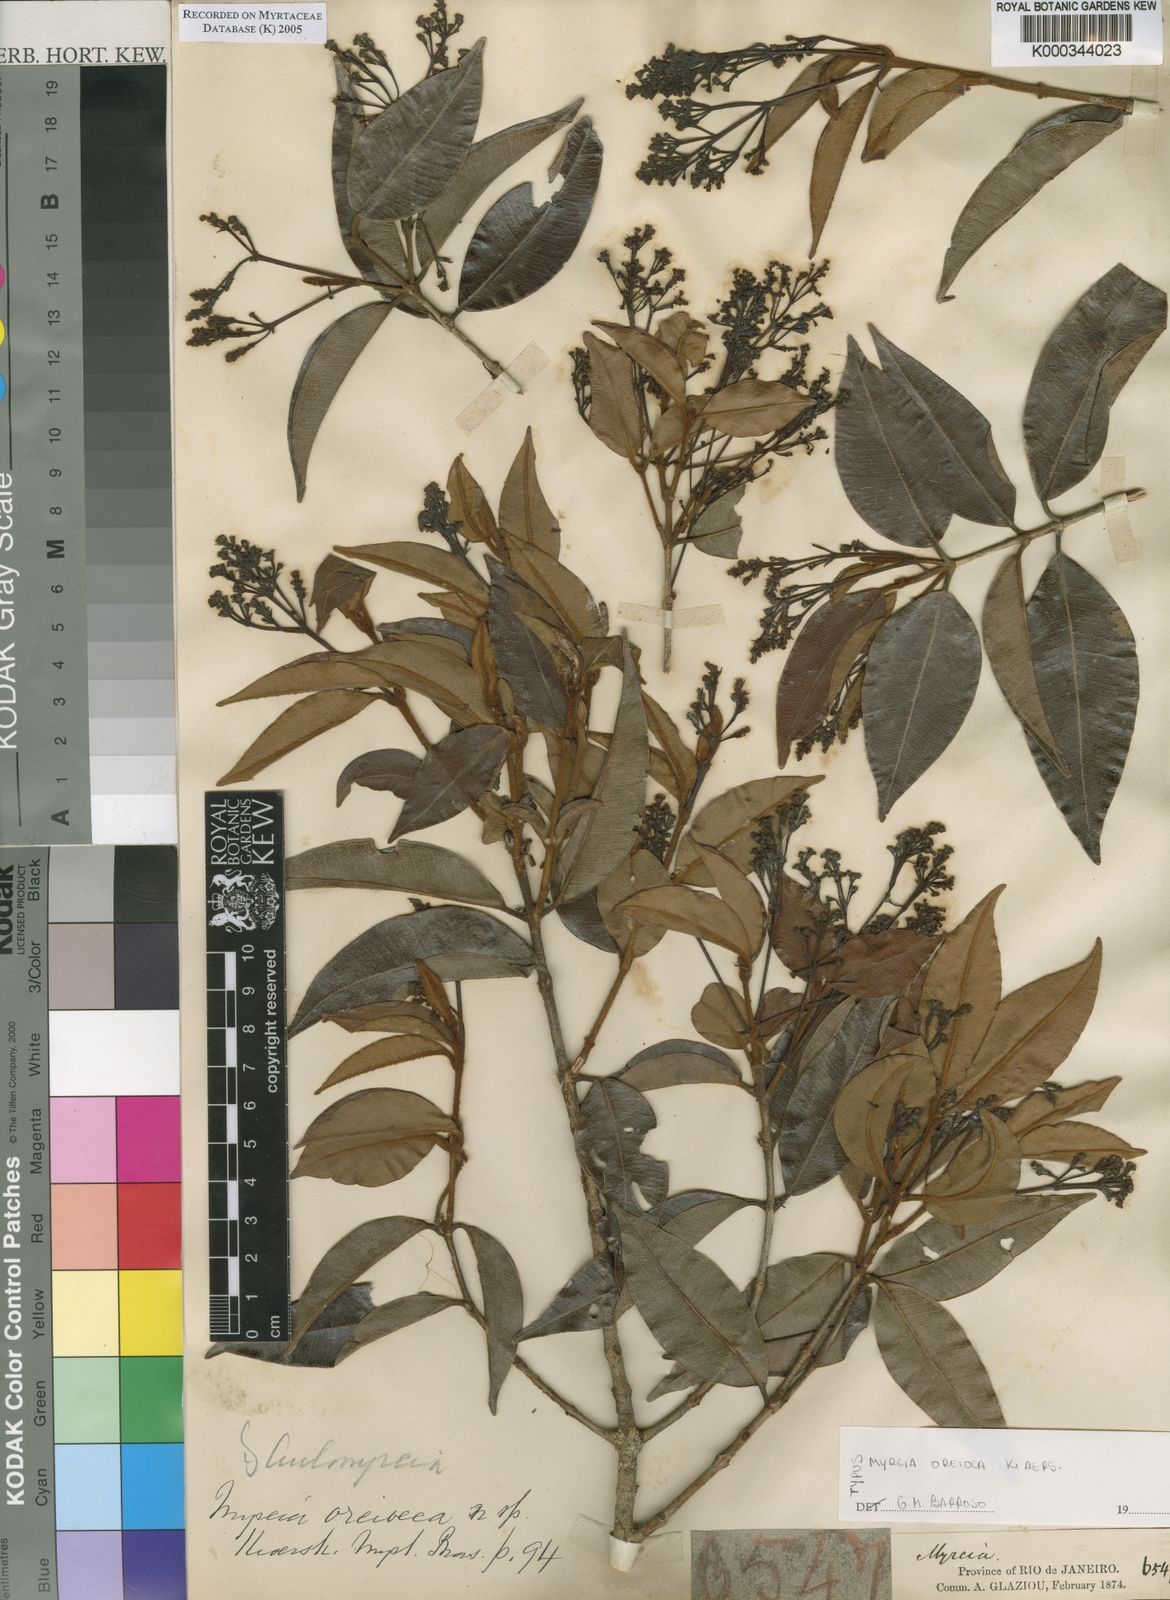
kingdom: Plantae
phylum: Tracheophyta
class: Magnoliopsida
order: Myrtales
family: Myrtaceae
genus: Myrcia
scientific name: Myrcia oreioeca
